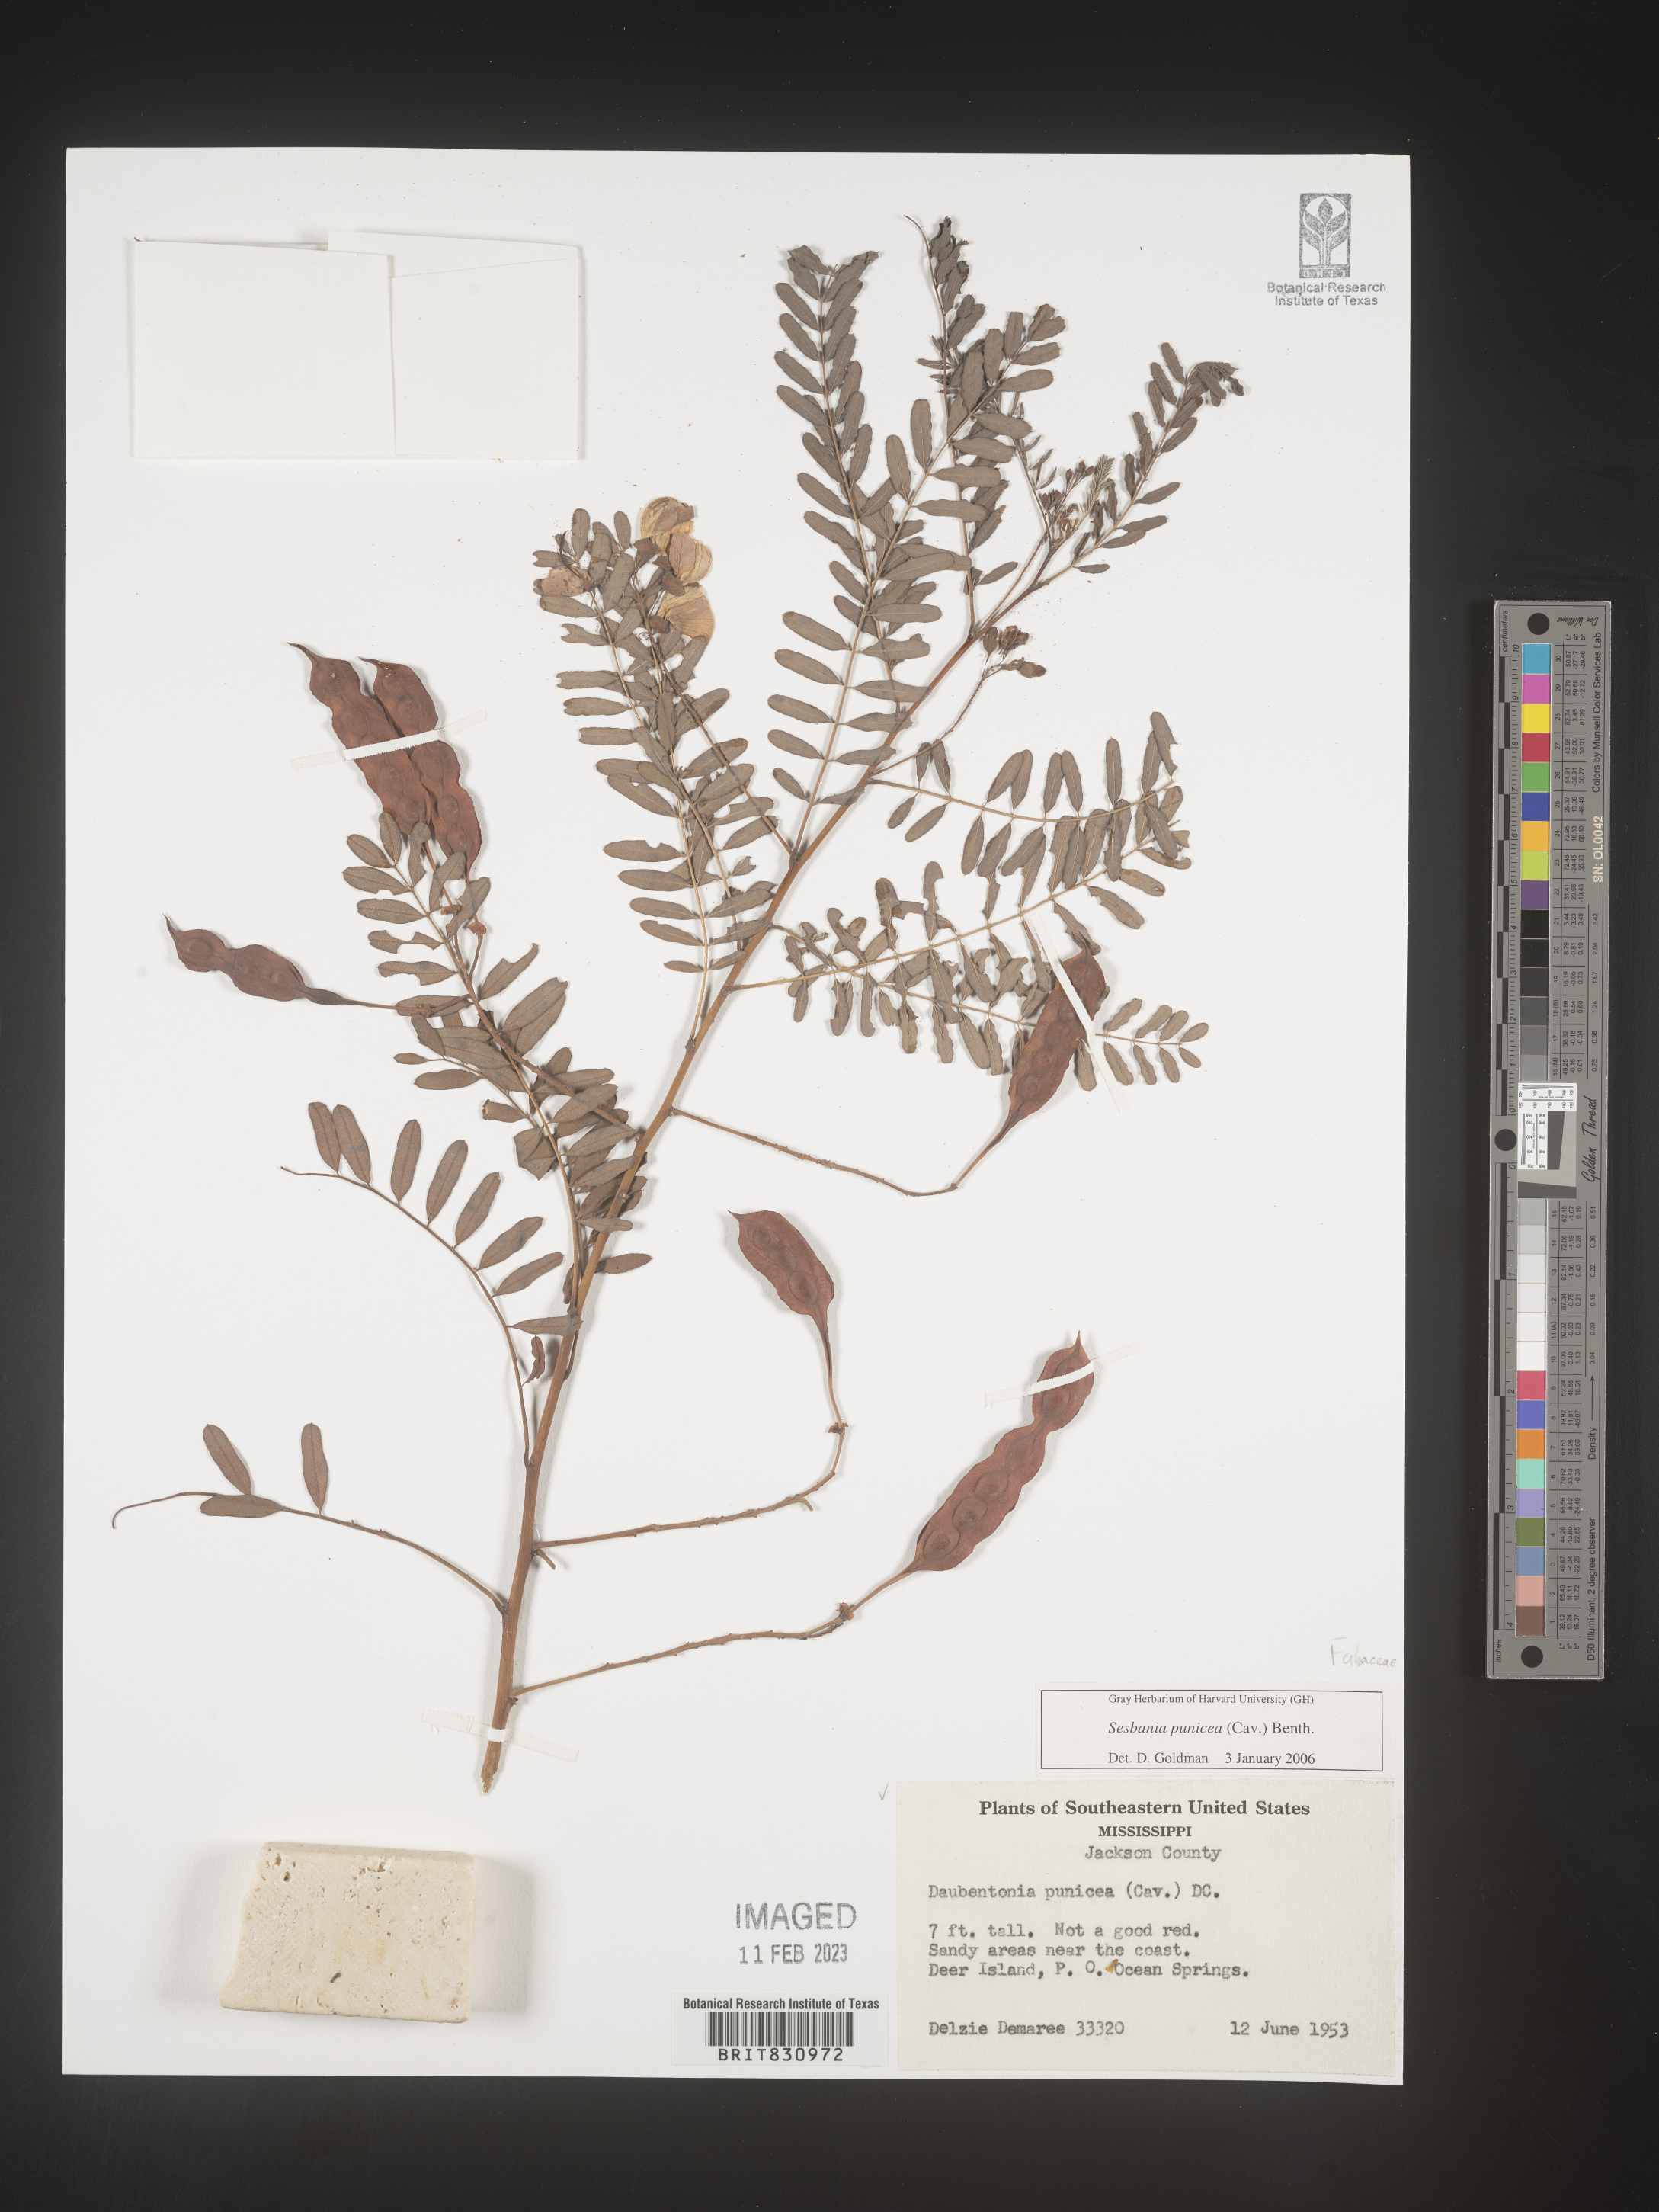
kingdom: Plantae
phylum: Tracheophyta
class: Magnoliopsida
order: Fabales
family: Fabaceae
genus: Sesbania
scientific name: Sesbania punicea
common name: Rattlebox
